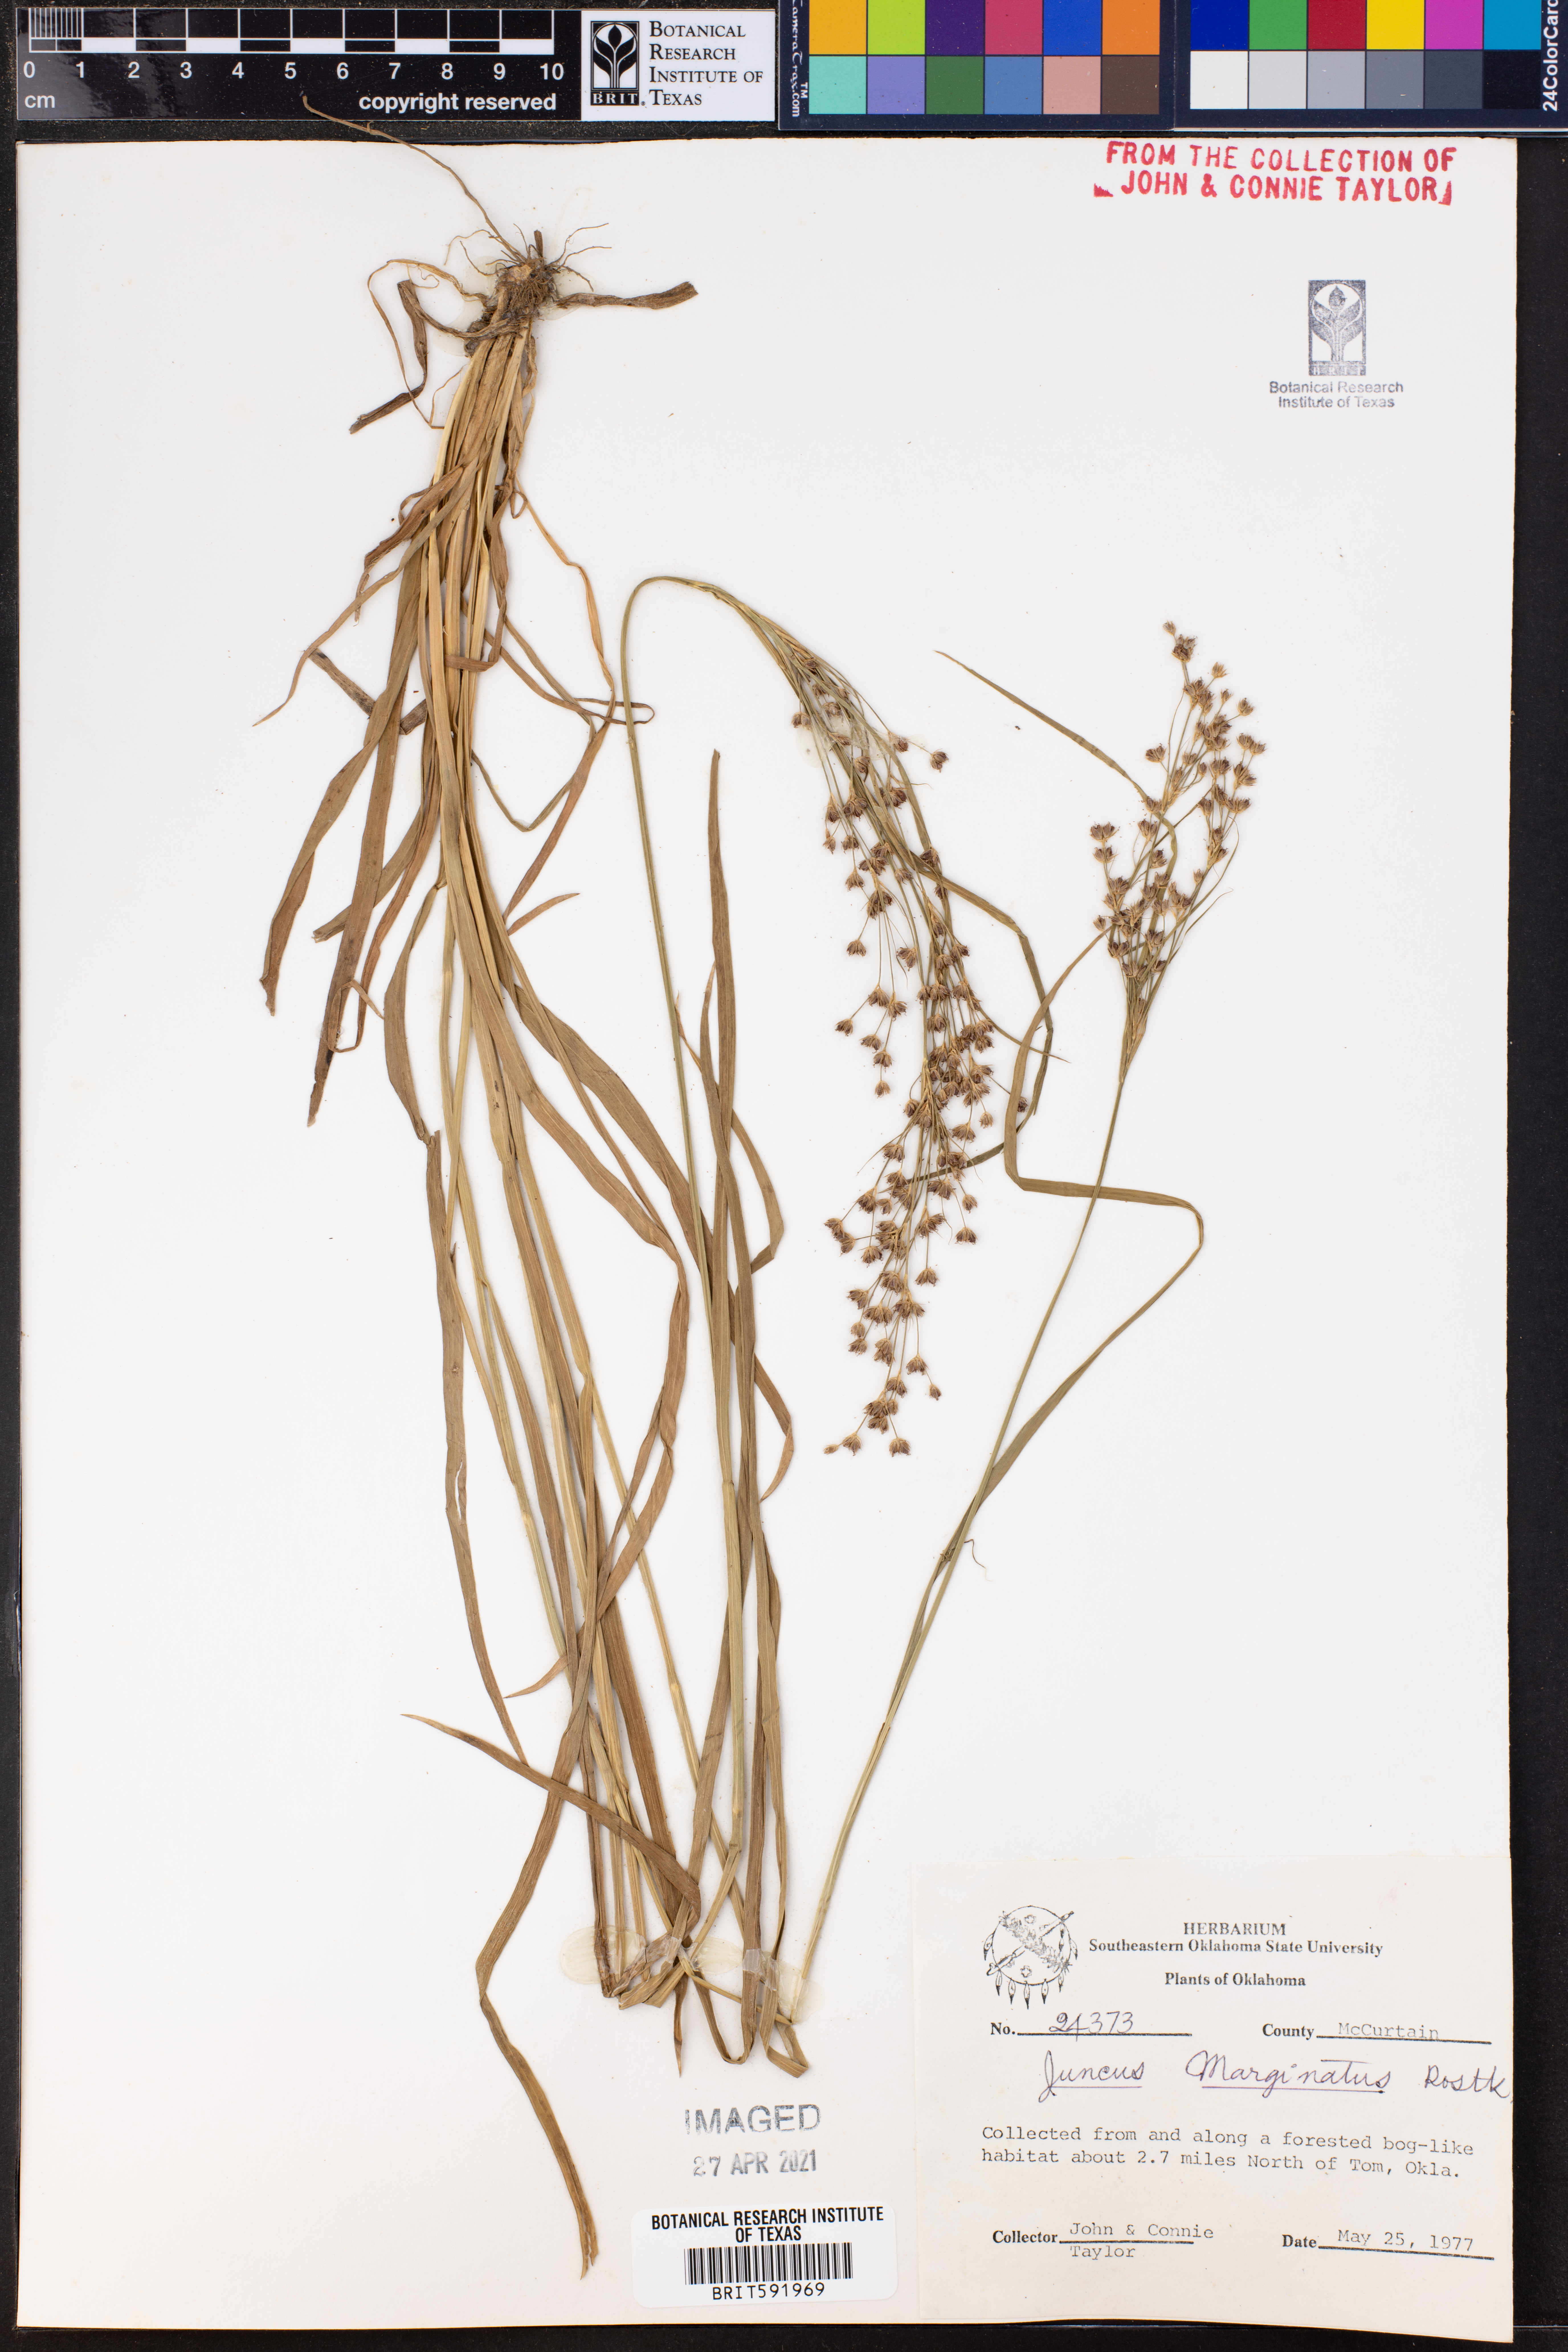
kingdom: Plantae
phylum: Tracheophyta
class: Liliopsida
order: Poales
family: Juncaceae
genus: Juncus
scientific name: Juncus marginatus
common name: Grass-leaf rush
